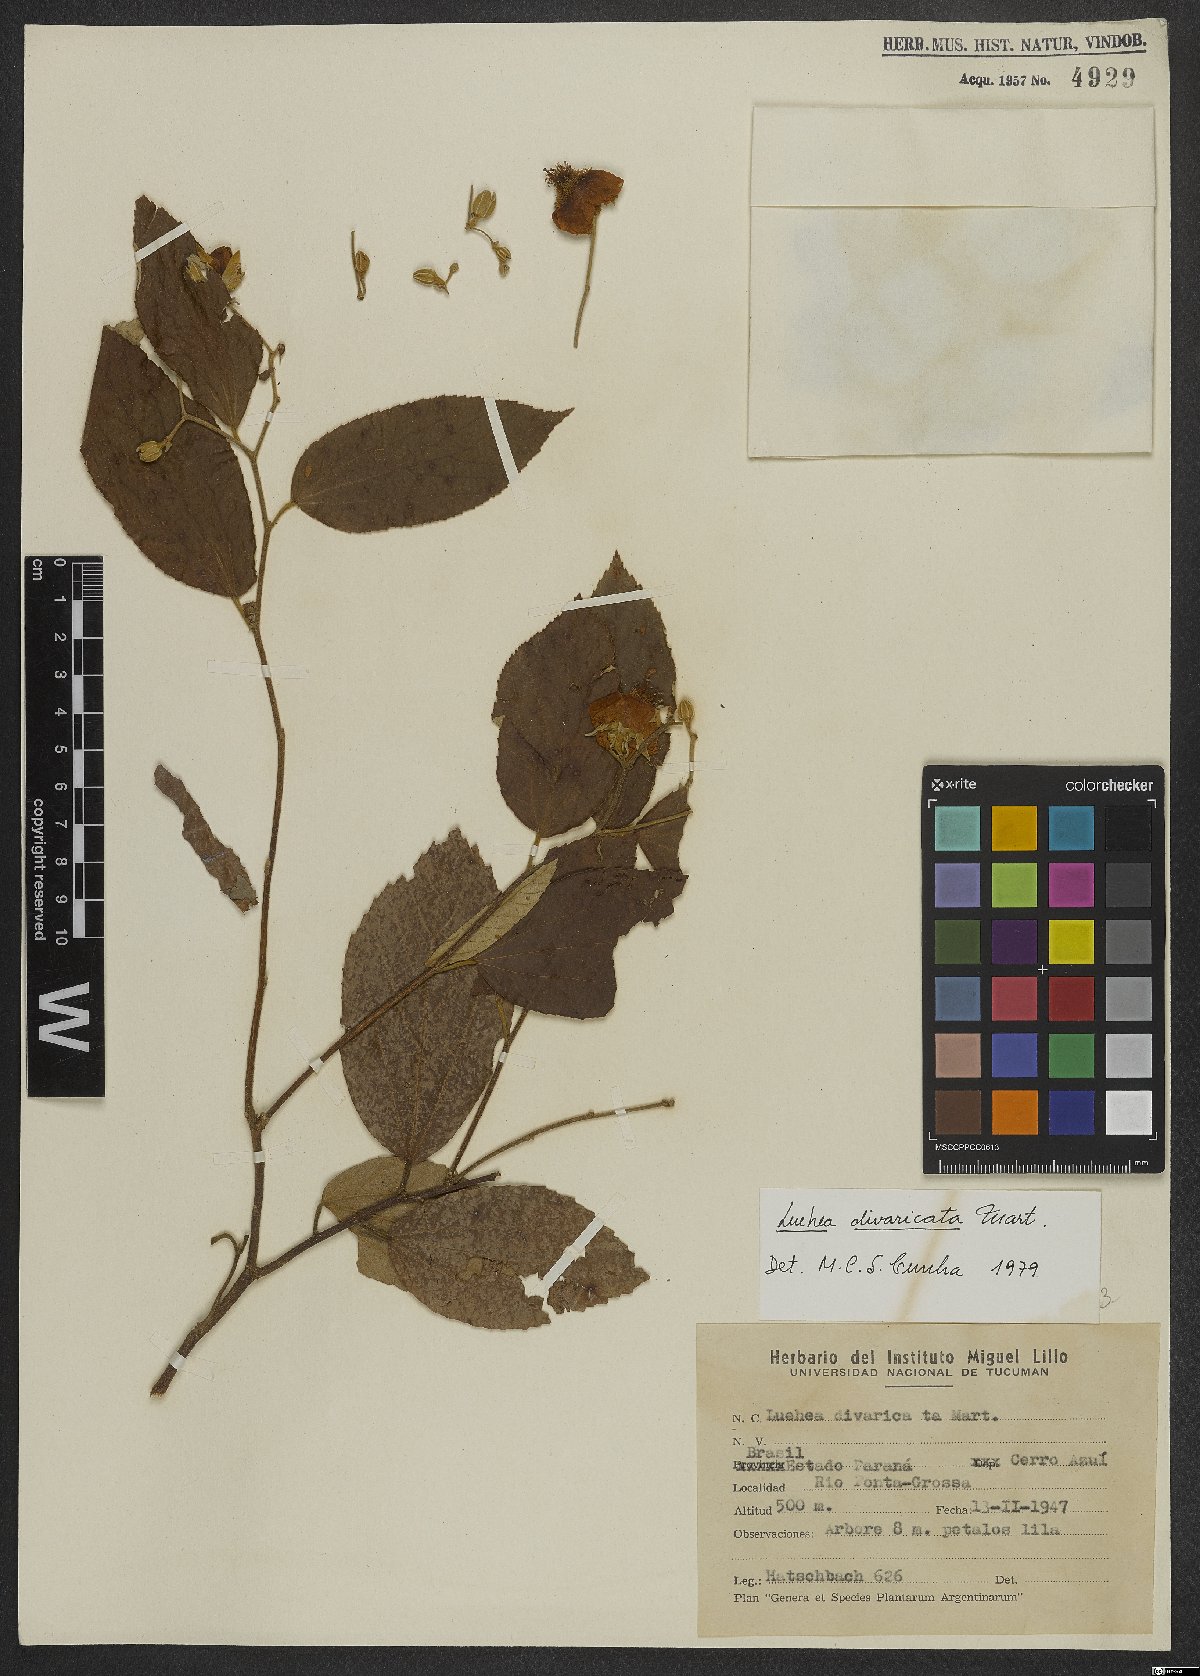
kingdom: Plantae
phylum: Tracheophyta
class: Magnoliopsida
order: Malvales
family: Malvaceae
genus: Luehea
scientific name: Luehea divaricata
